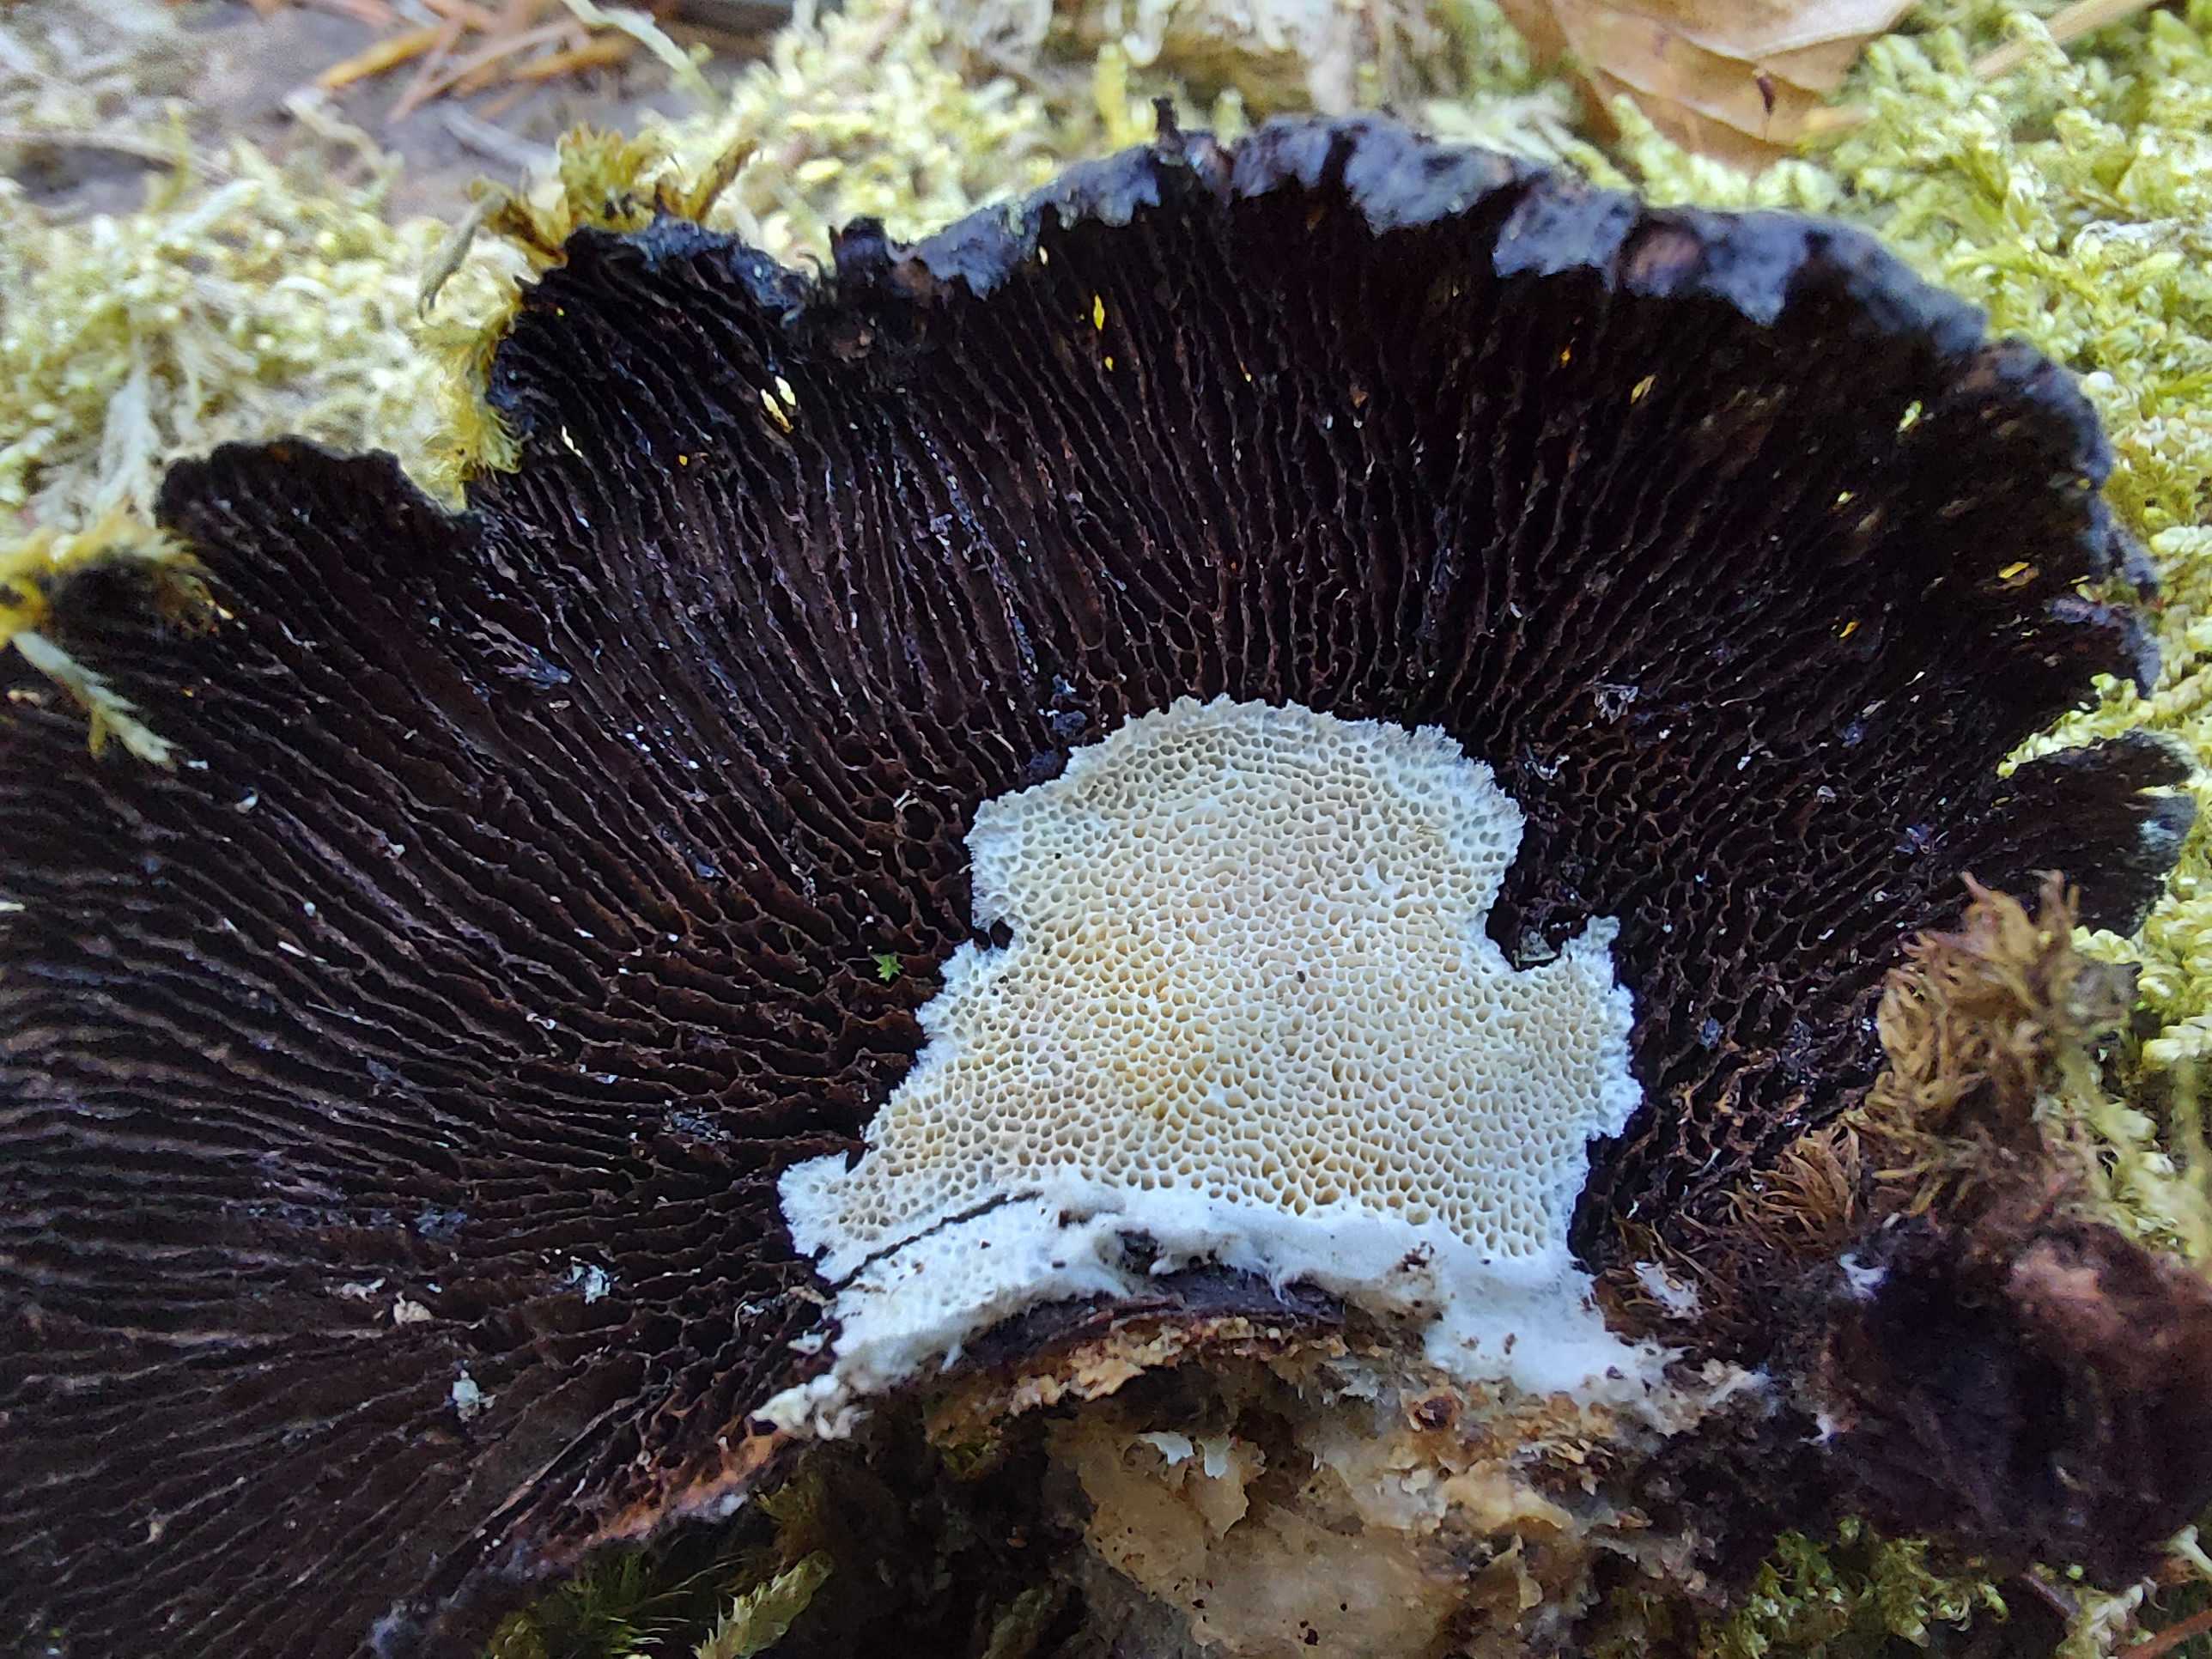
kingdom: Fungi
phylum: Basidiomycota
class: Agaricomycetes
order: Polyporales
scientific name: Polyporales
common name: poresvampordenen
